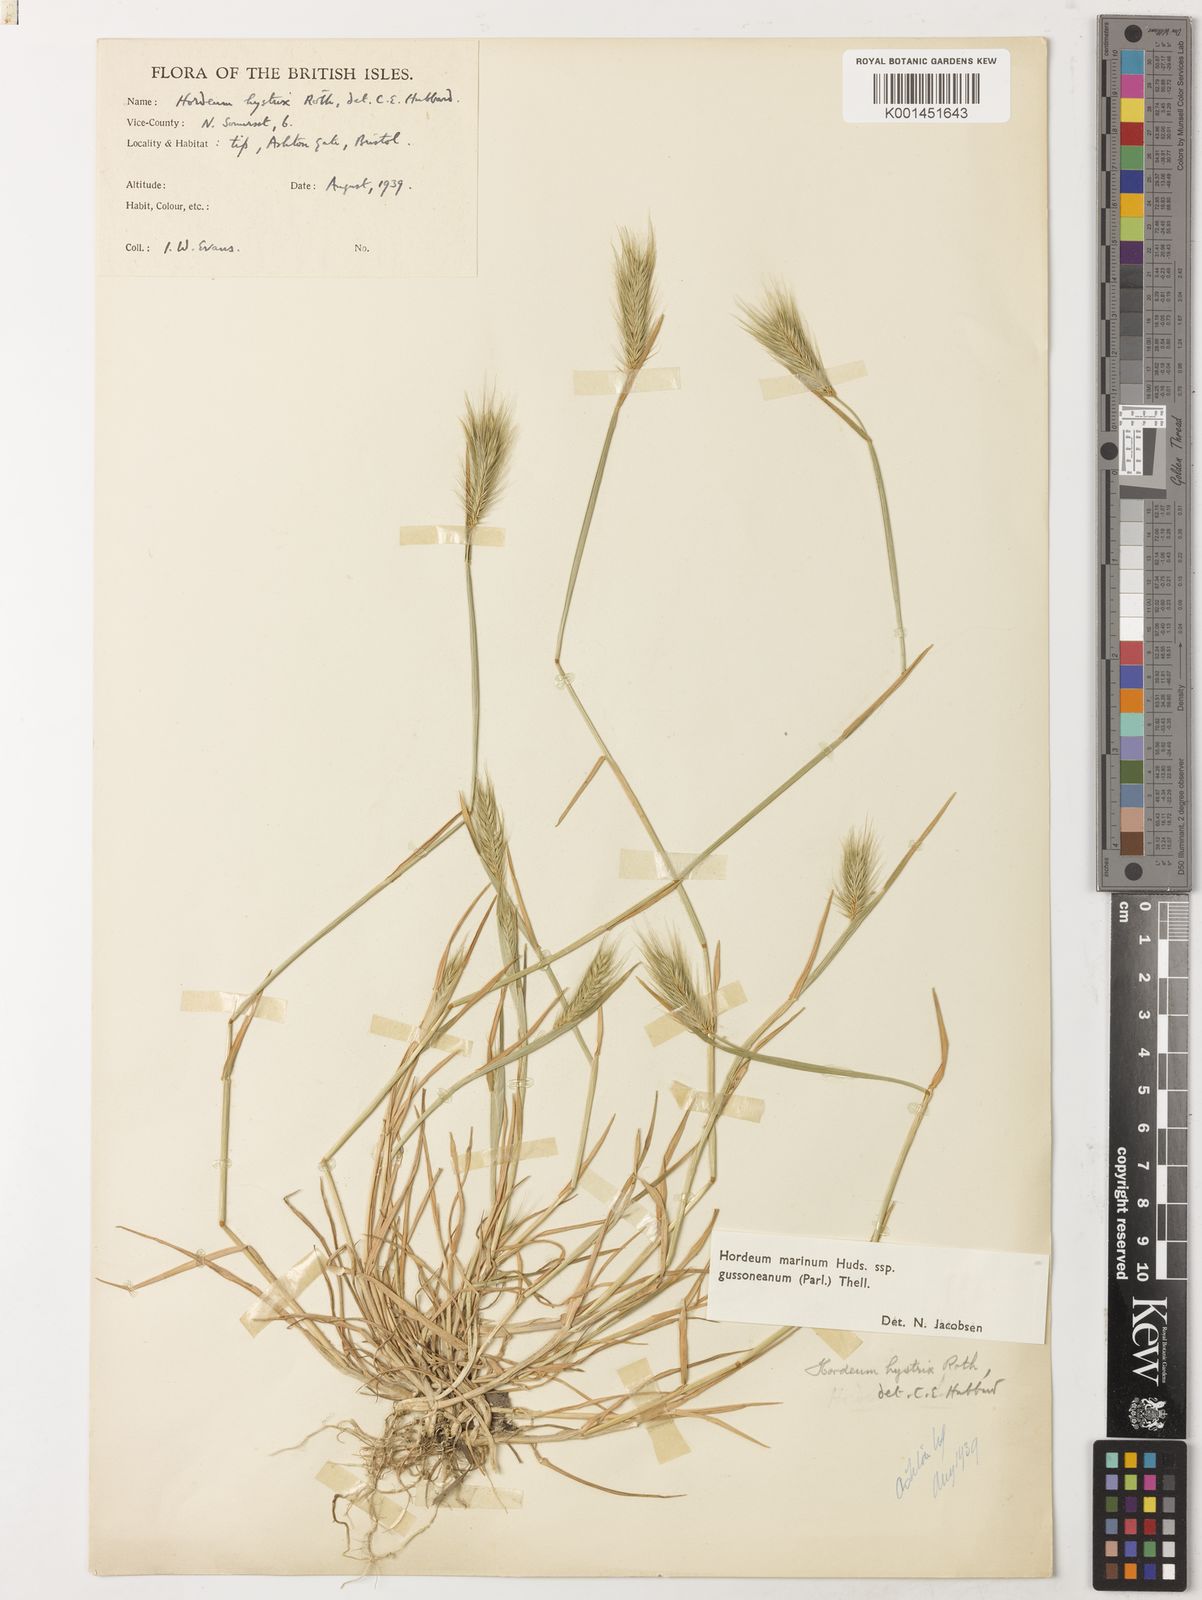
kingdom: Plantae
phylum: Tracheophyta
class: Liliopsida
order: Poales
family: Poaceae
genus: Hordeum
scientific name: Hordeum marinum
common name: Sea barley
